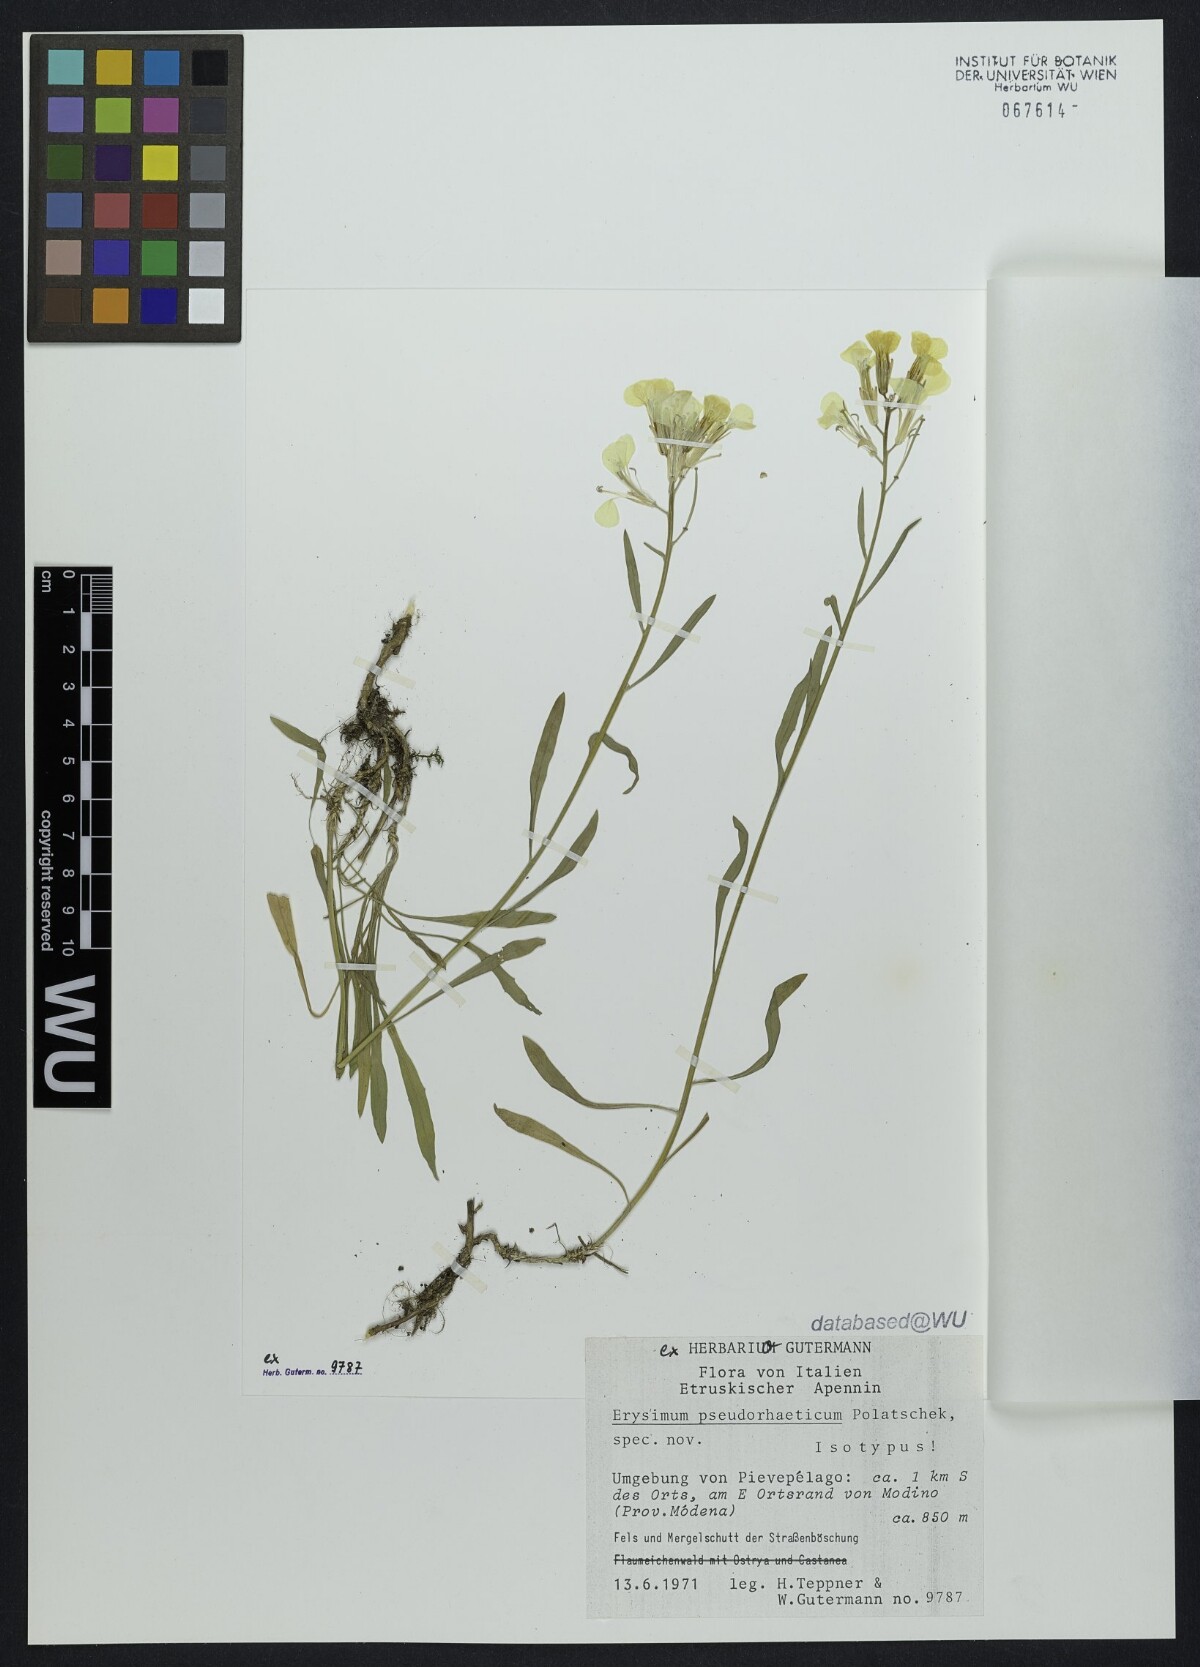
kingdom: Plantae
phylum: Tracheophyta
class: Magnoliopsida
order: Brassicales
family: Brassicaceae
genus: Erysimum
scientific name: Erysimum pseudorhaeticum
